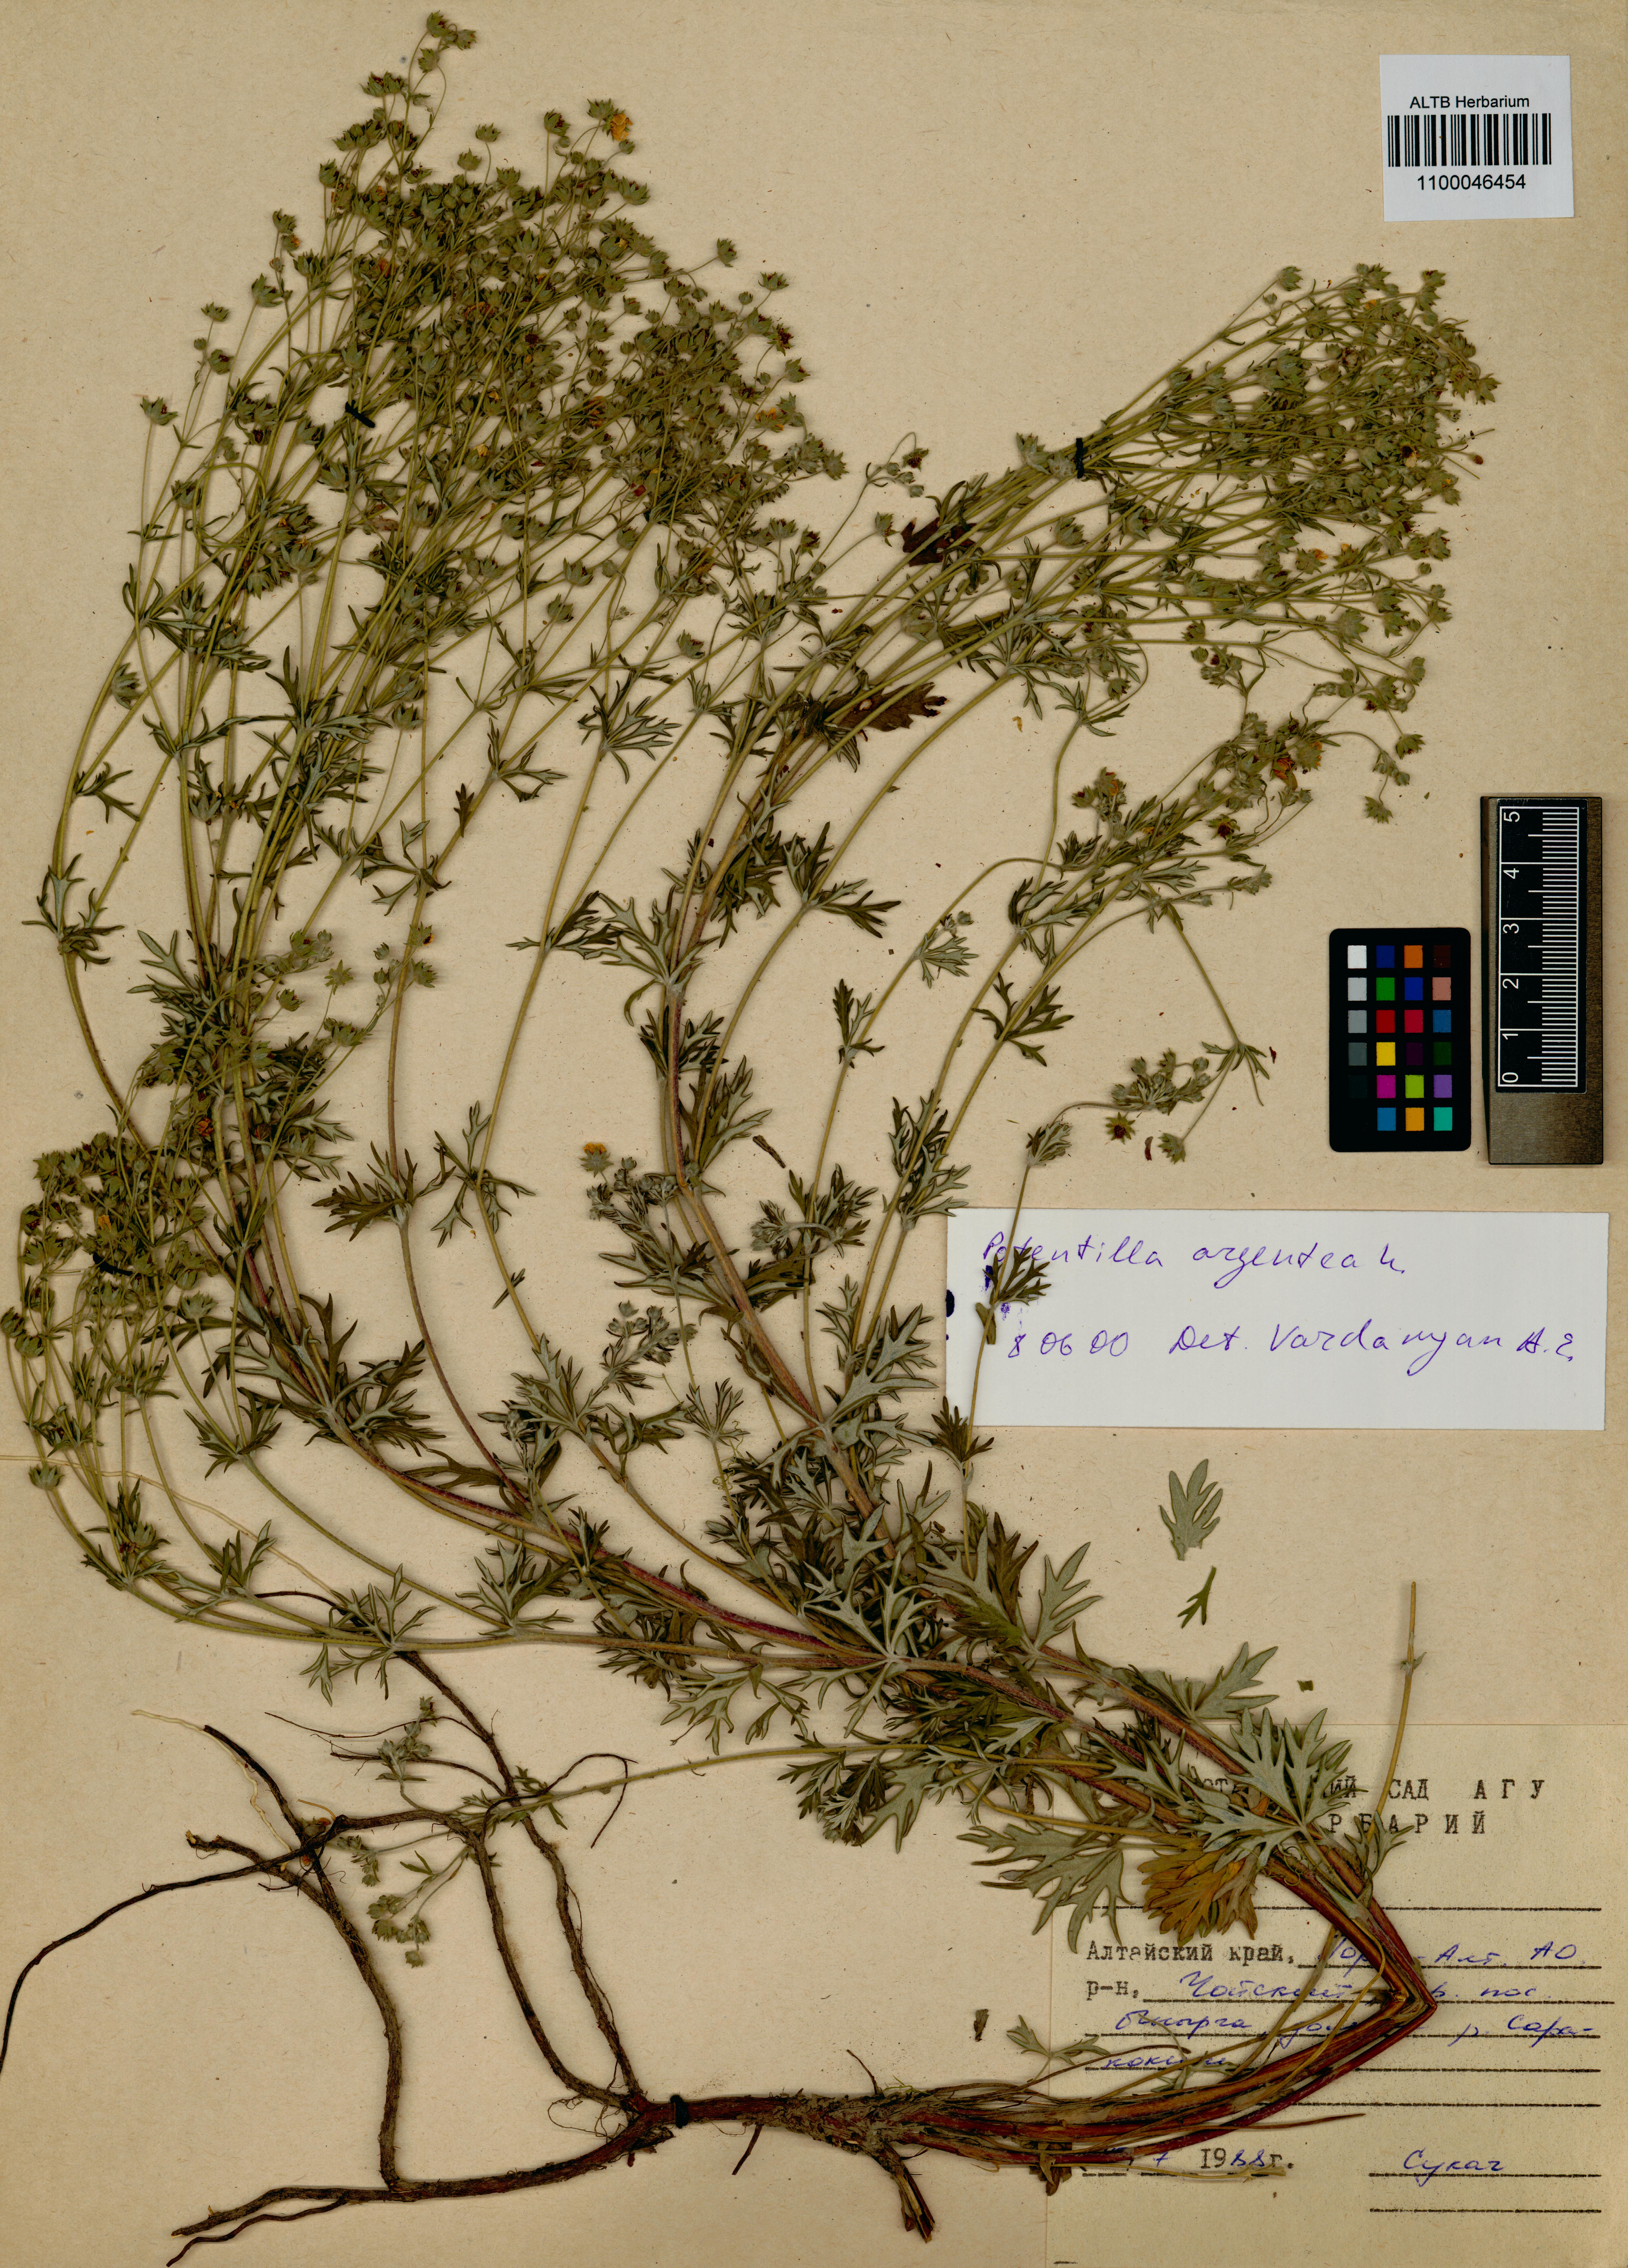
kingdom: Plantae
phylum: Tracheophyta
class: Magnoliopsida
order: Rosales
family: Rosaceae
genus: Potentilla
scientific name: Potentilla argentea
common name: Hoary cinquefoil
